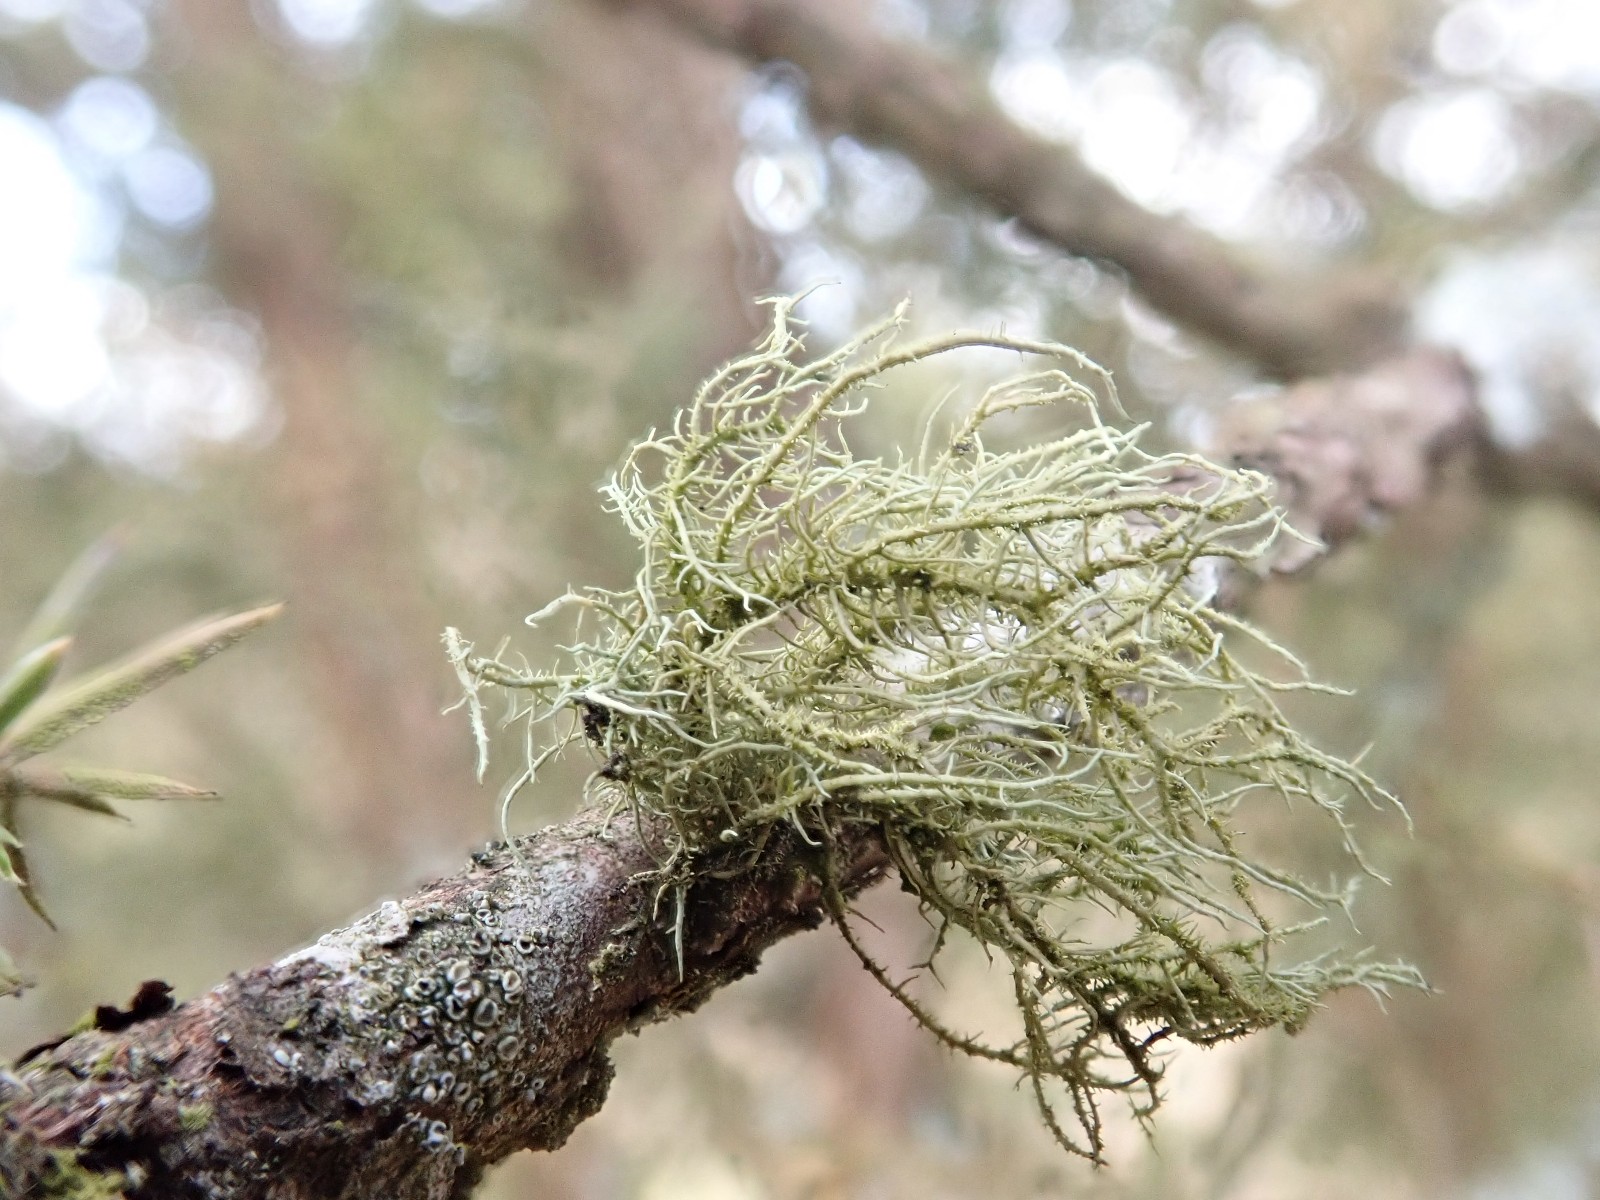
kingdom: Fungi
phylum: Ascomycota
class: Lecanoromycetes
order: Lecanorales
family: Parmeliaceae
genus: Usnea
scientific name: Usnea hirta
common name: liden skæglav
